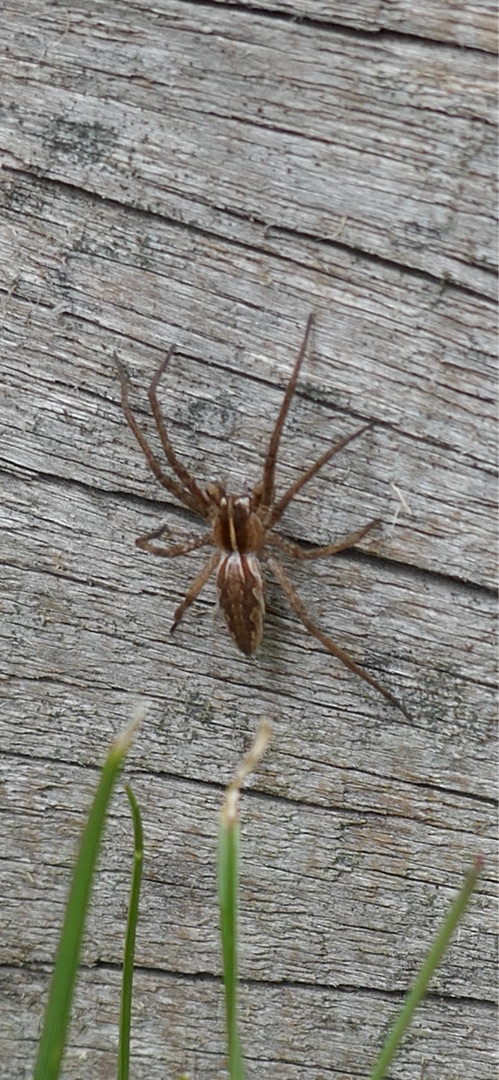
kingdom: Animalia
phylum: Arthropoda
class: Arachnida
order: Araneae
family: Pisauridae
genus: Pisaura
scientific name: Pisaura mirabilis
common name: Almindelig rovedderkop
